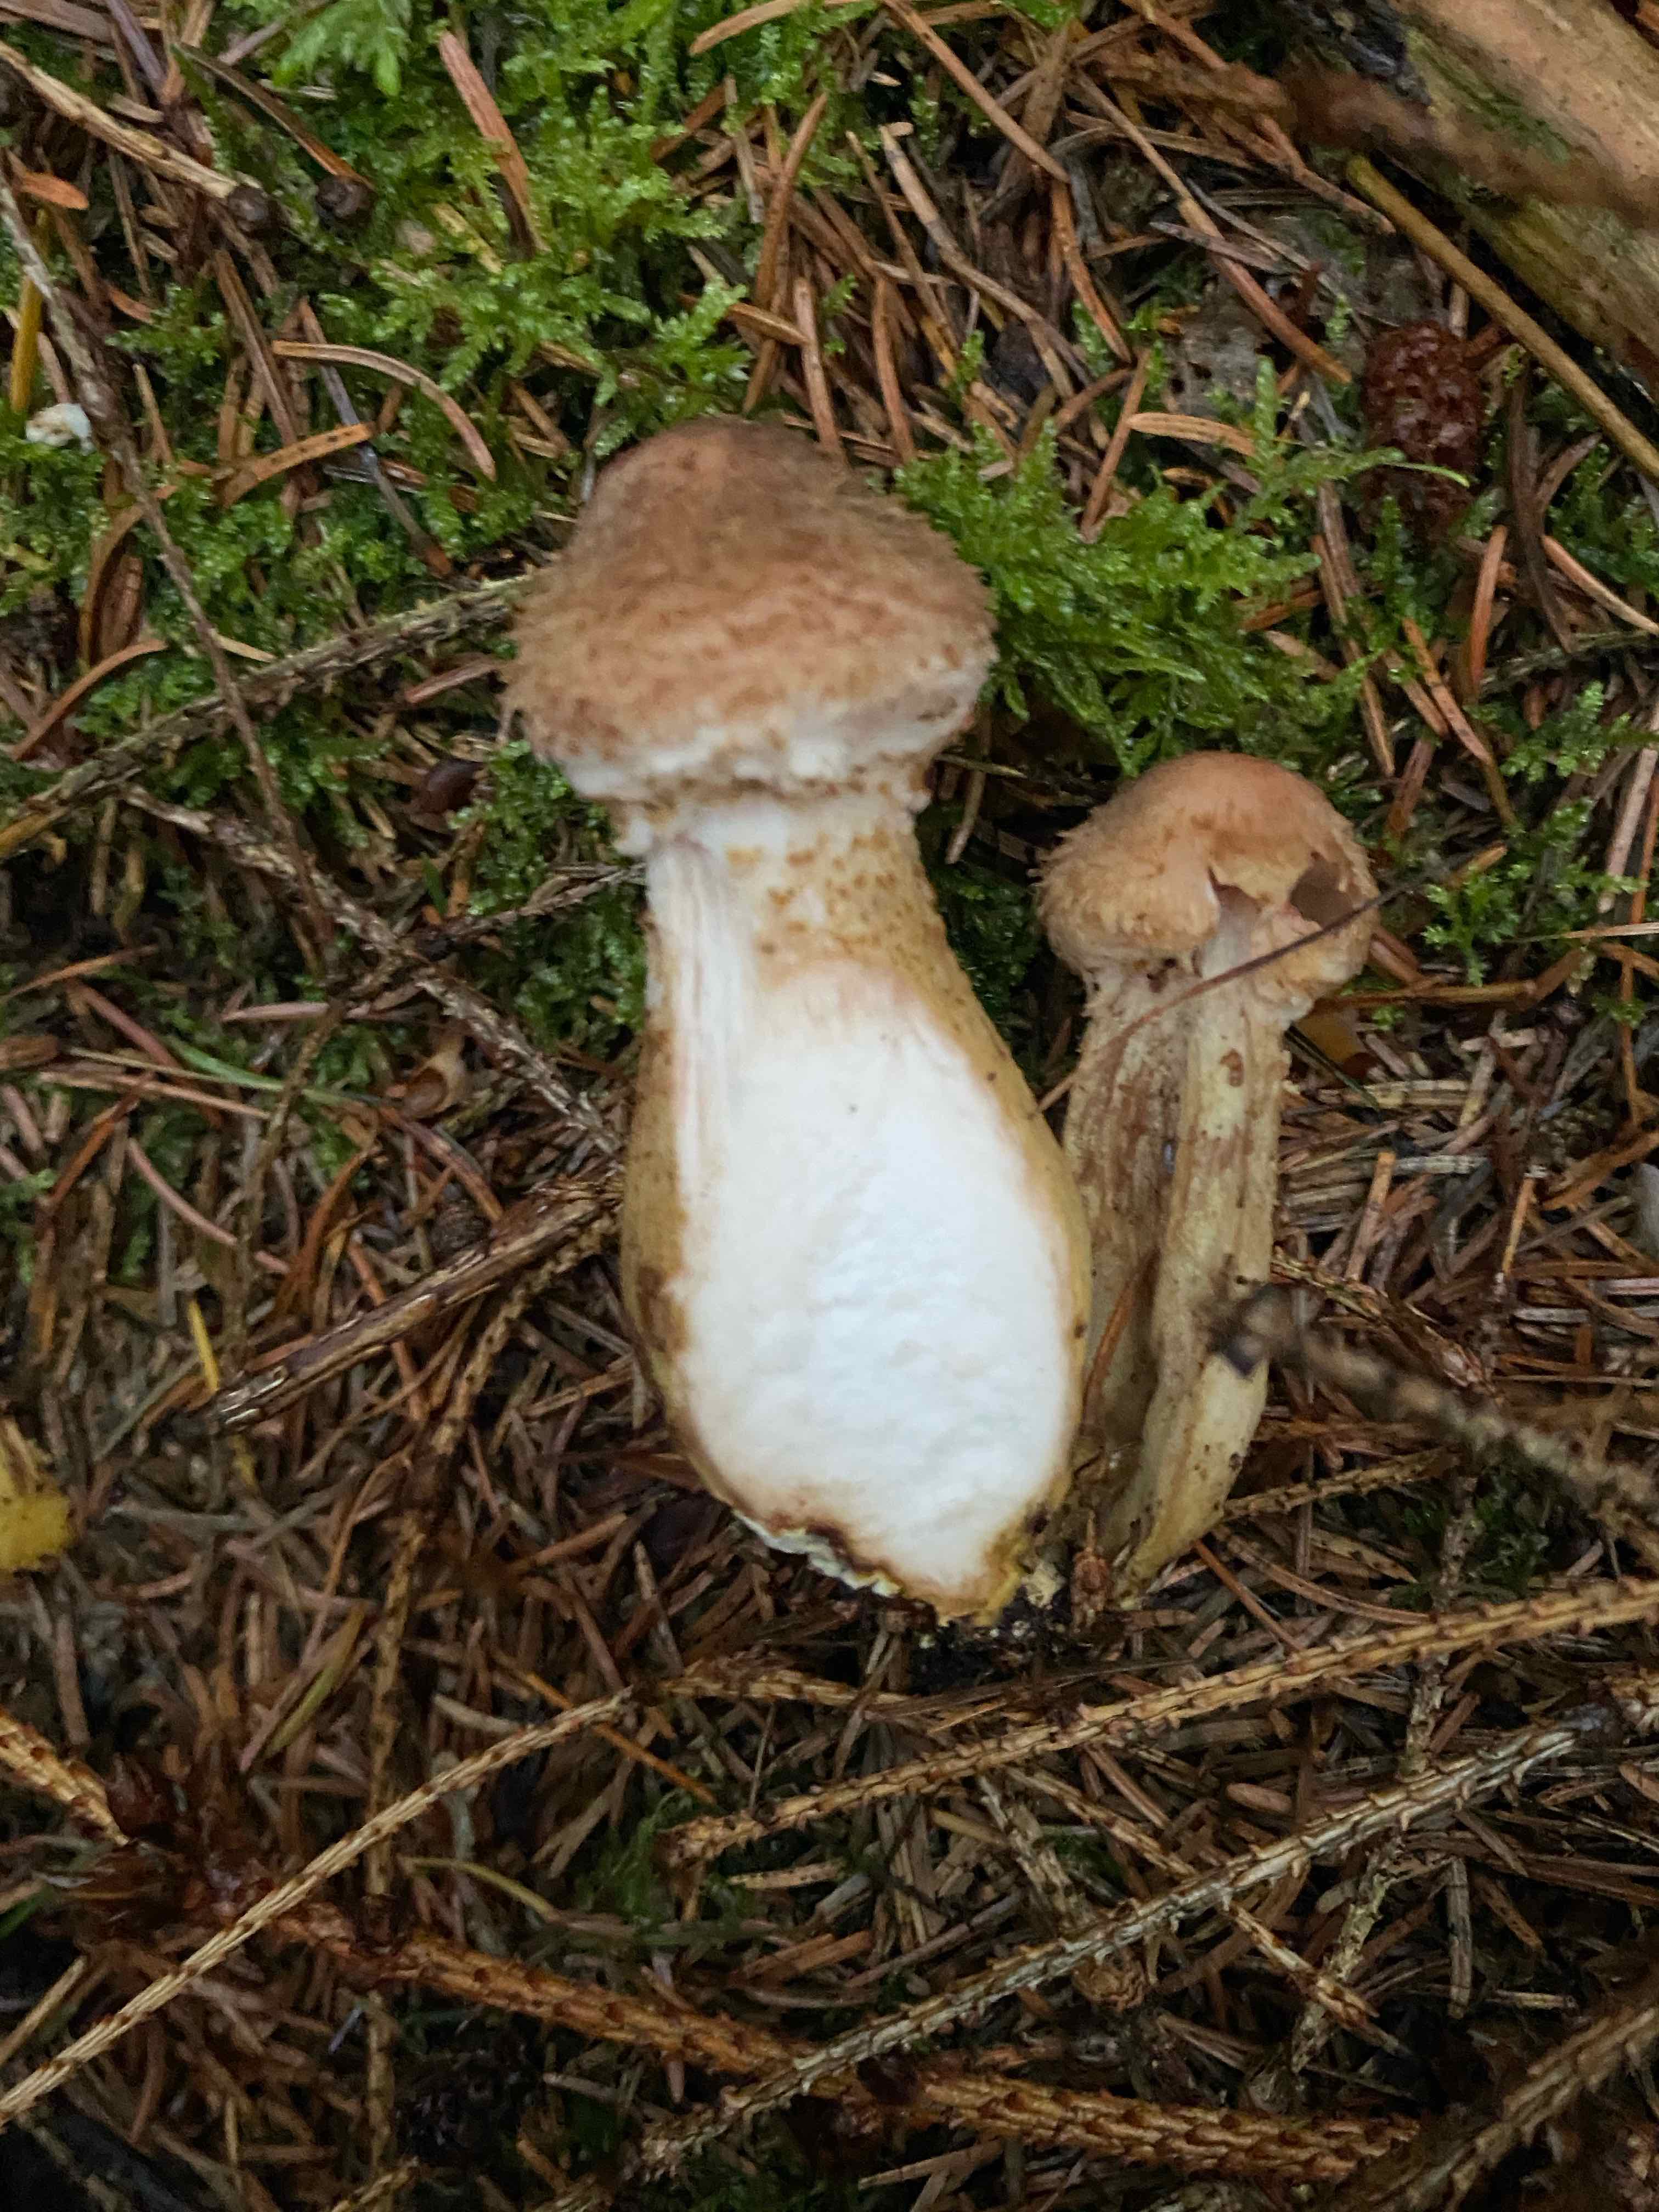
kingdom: Fungi
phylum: Basidiomycota
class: Agaricomycetes
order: Agaricales
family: Physalacriaceae
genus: Armillaria
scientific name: Armillaria ostoyae
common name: mørk honningsvamp
